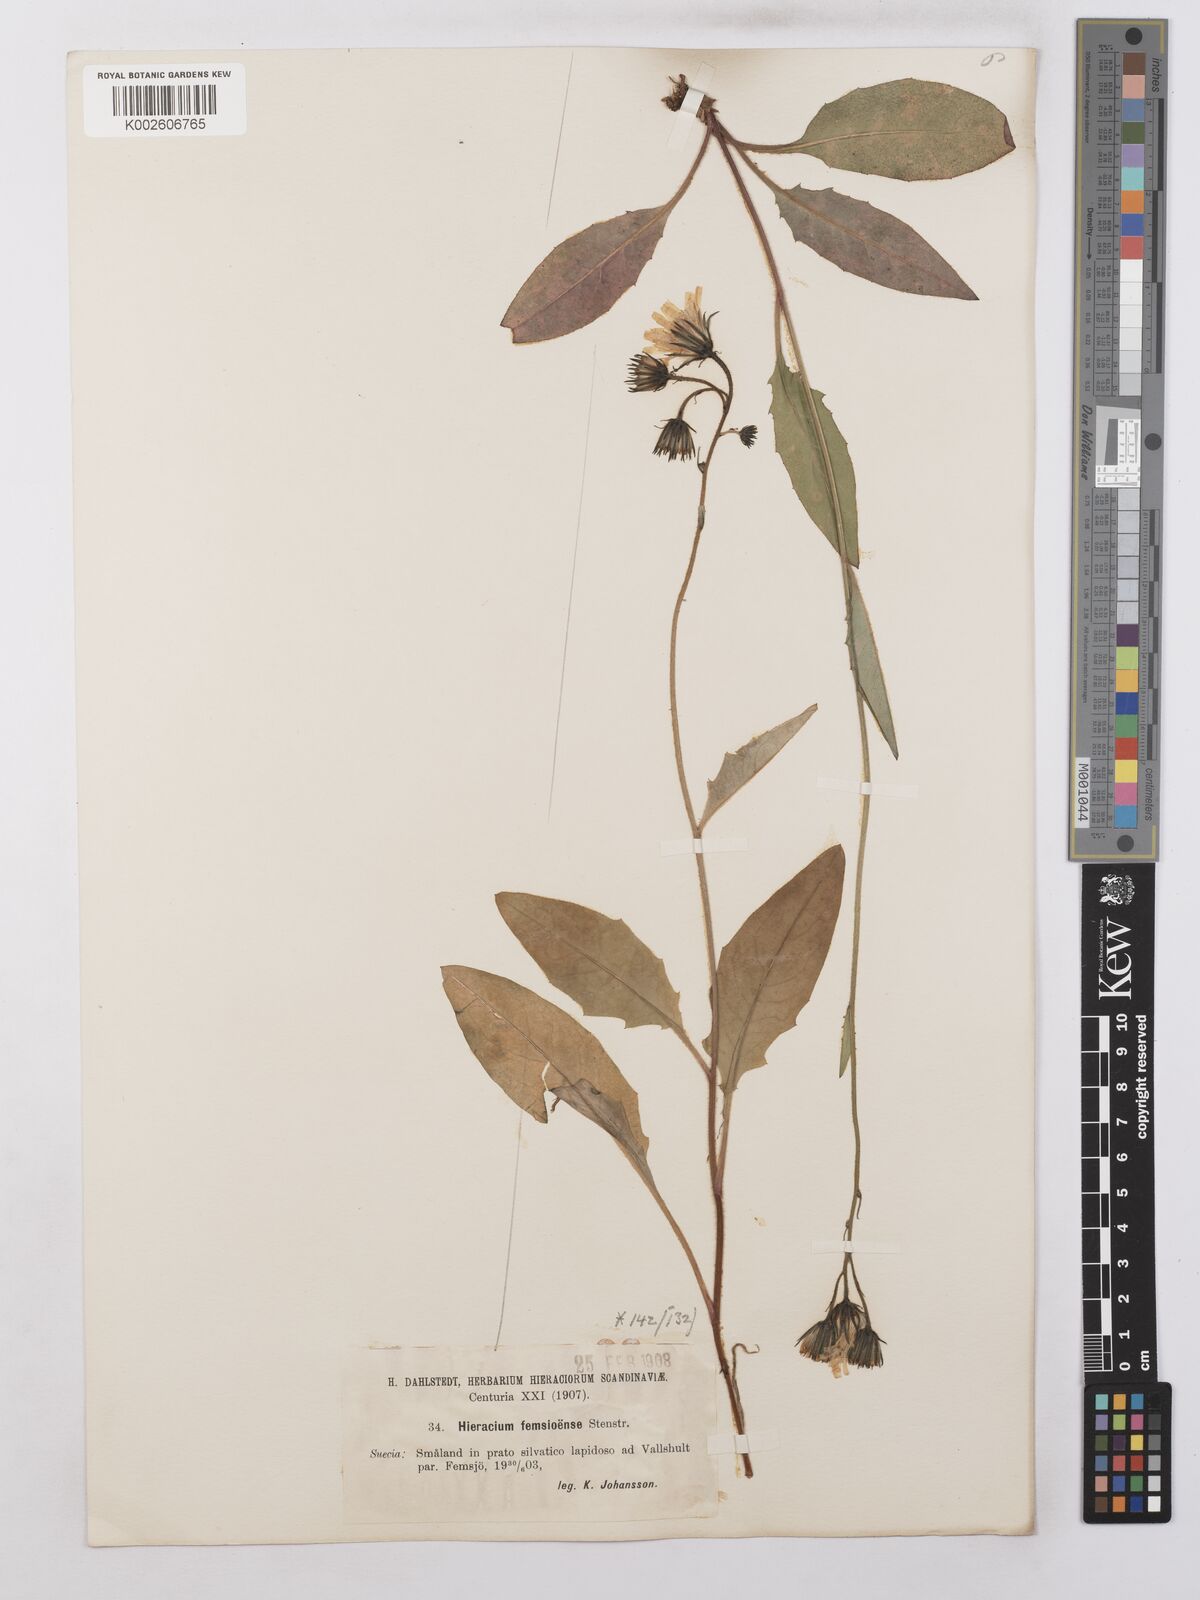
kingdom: Plantae
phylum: Tracheophyta
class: Magnoliopsida
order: Asterales
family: Asteraceae
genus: Hieracium
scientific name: Hieracium lachenalii
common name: Common hawkweed
